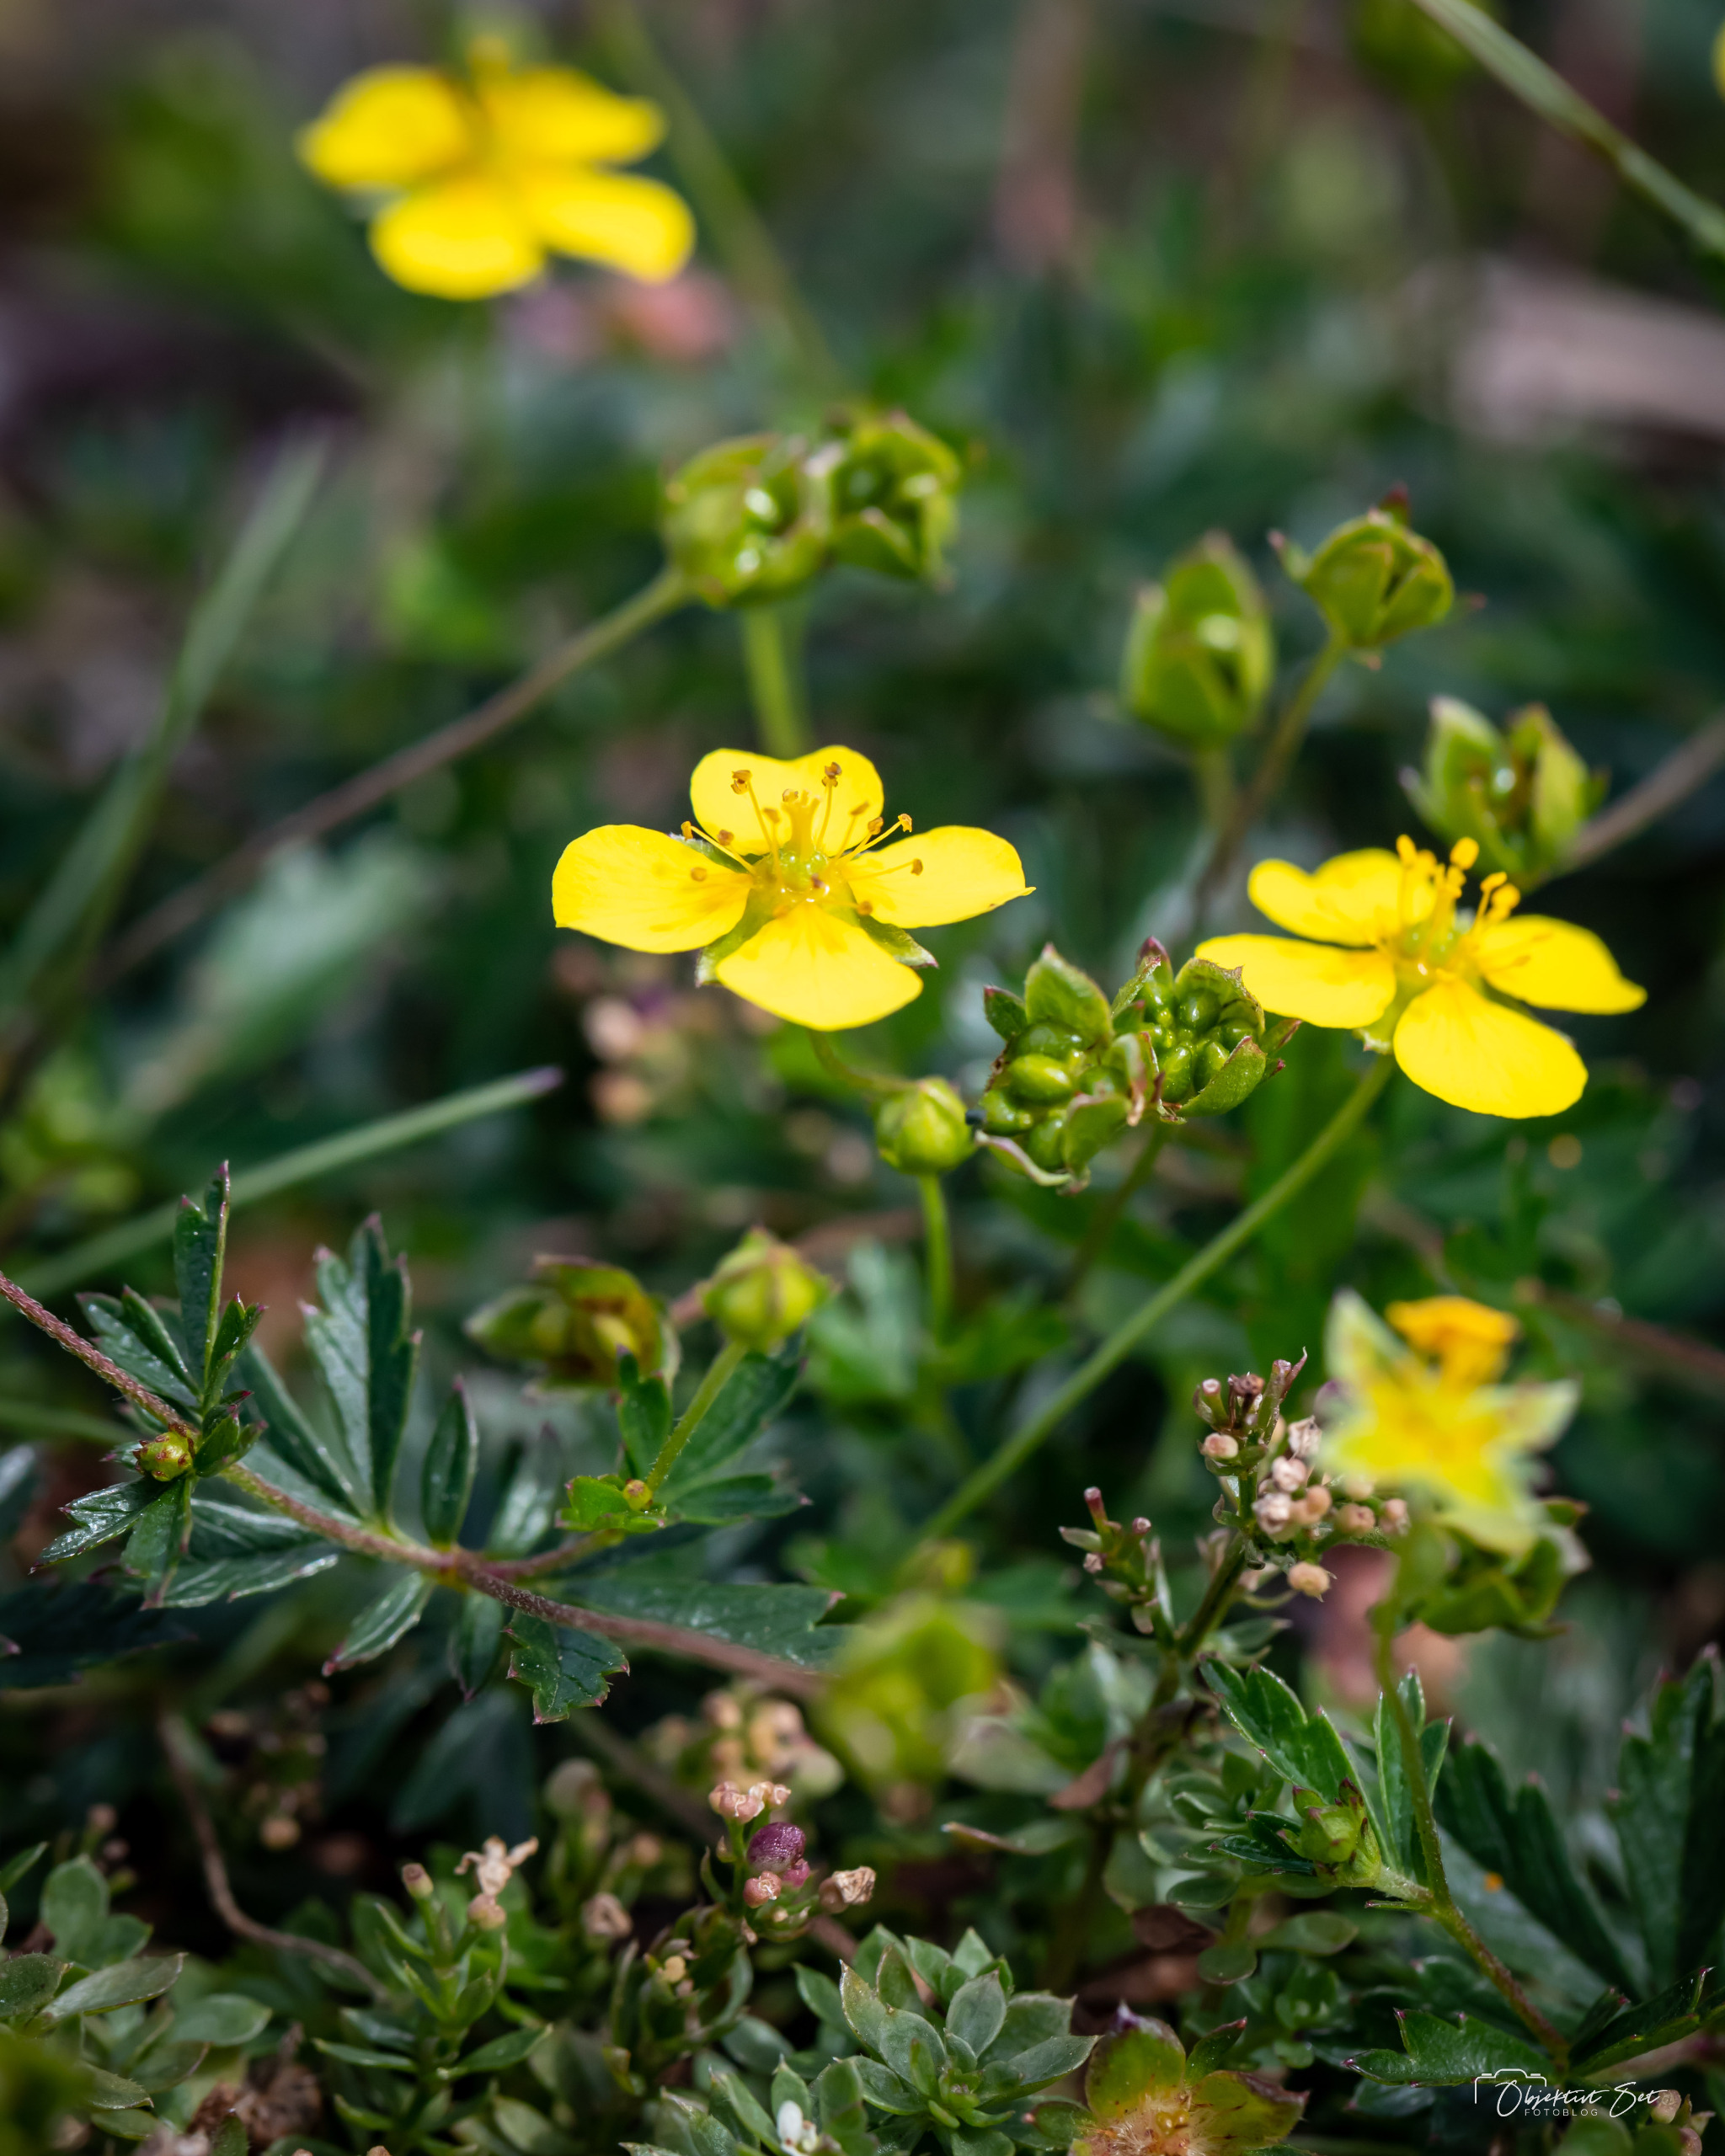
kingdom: Plantae
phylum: Tracheophyta
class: Magnoliopsida
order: Rosales
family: Rosaceae
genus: Potentilla
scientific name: Potentilla erecta
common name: Tormentil
